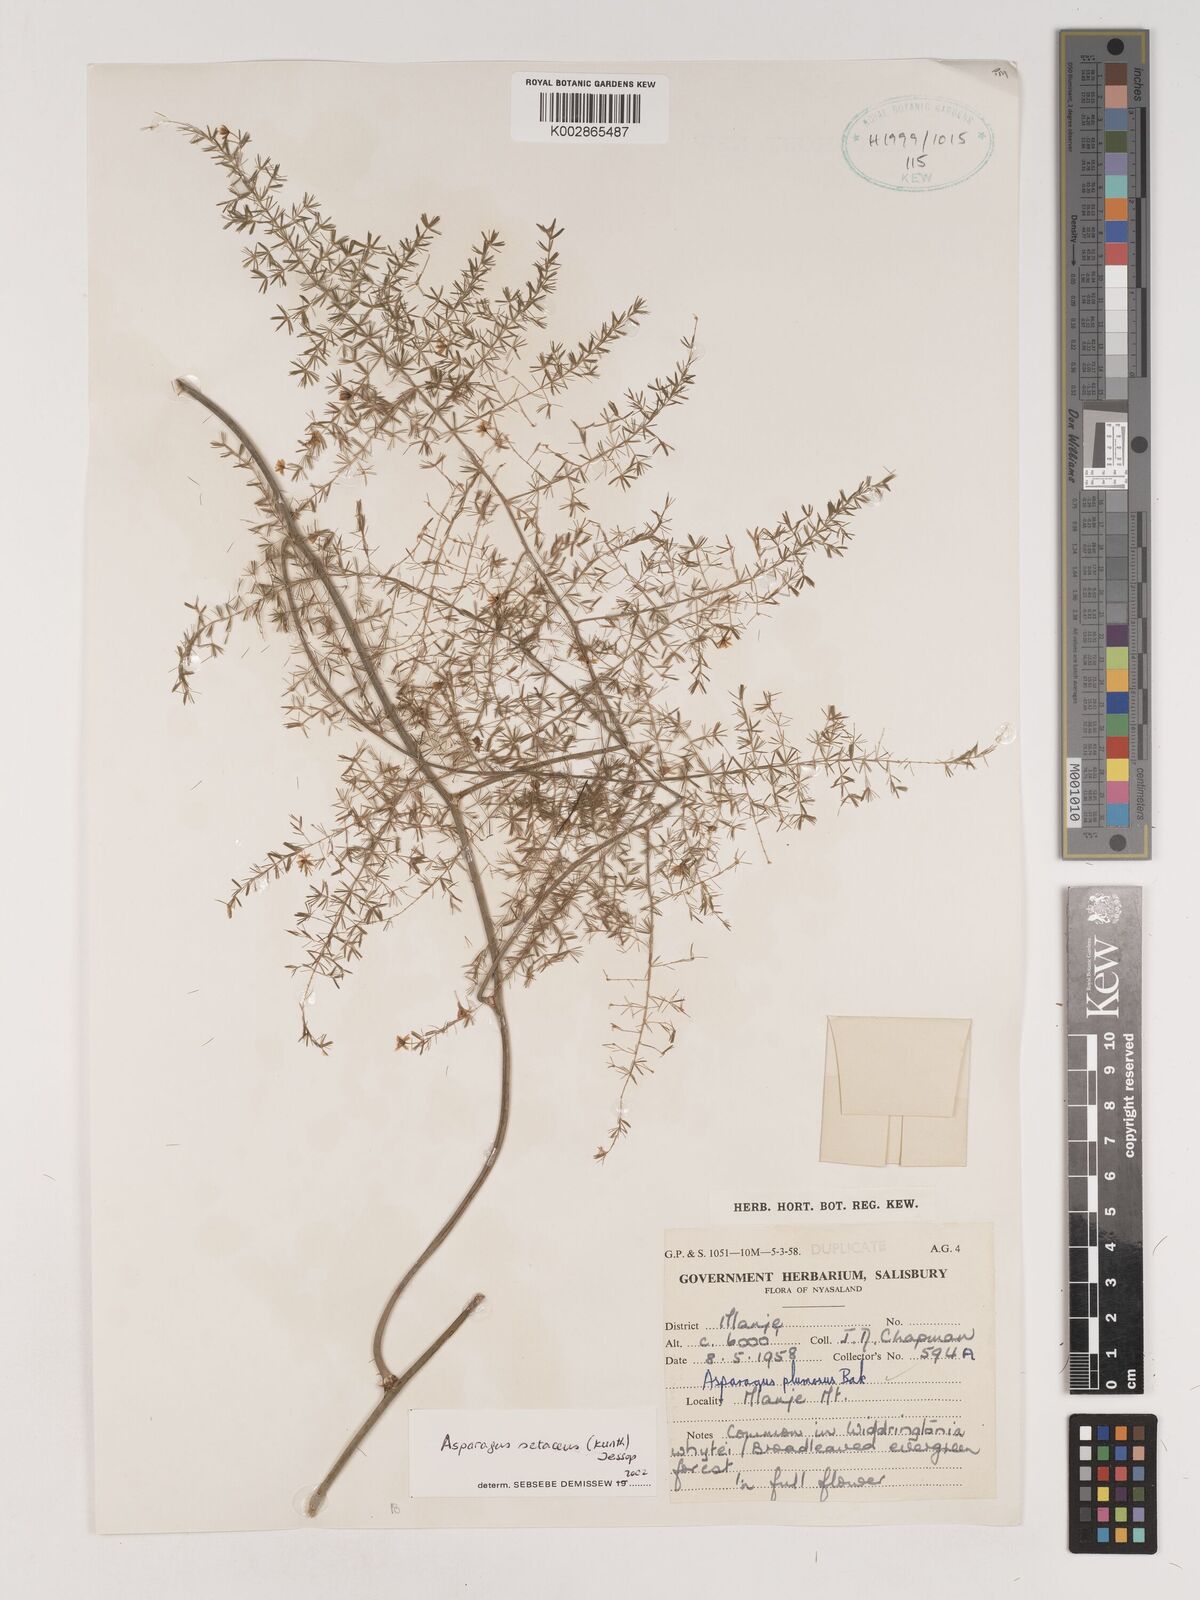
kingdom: Plantae
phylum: Tracheophyta
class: Liliopsida
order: Asparagales
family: Asparagaceae
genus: Asparagus
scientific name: Asparagus setaceus
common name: Common asparagus fern
